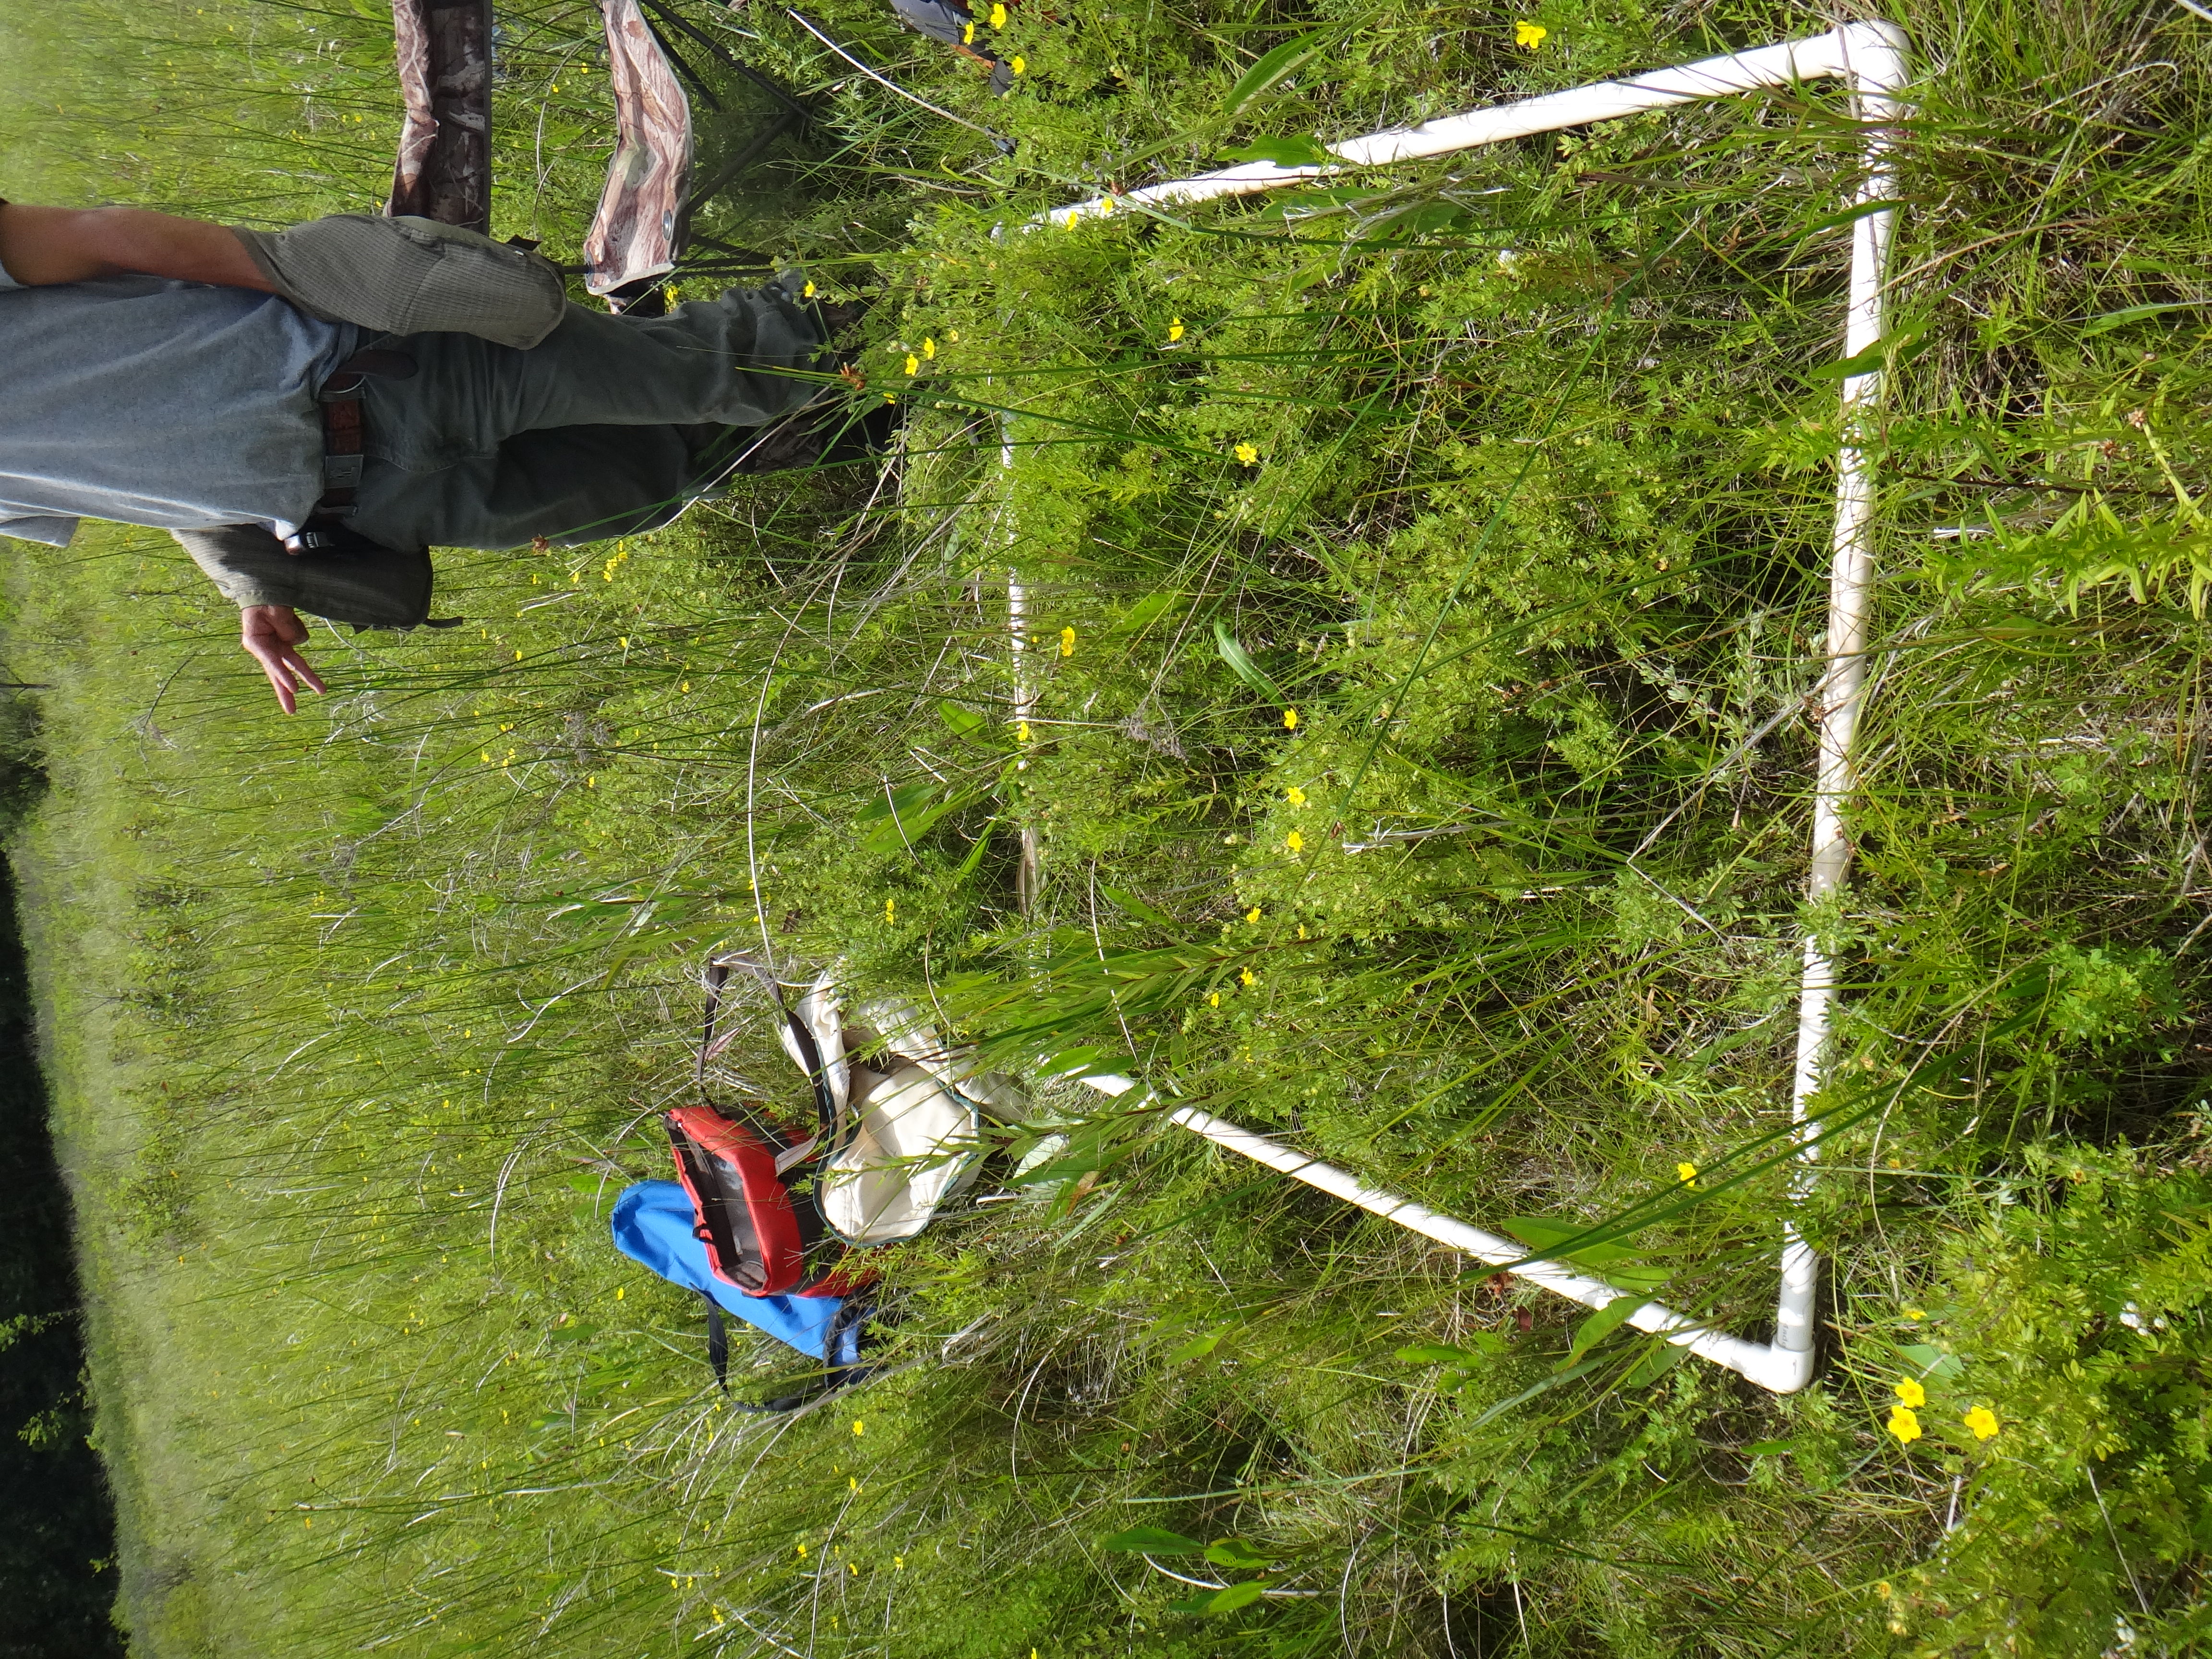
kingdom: Plantae
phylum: Tracheophyta
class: Liliopsida
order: Poales
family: Cyperaceae
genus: Carex
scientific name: Carex sartwellii
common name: Sartwell's sedge
